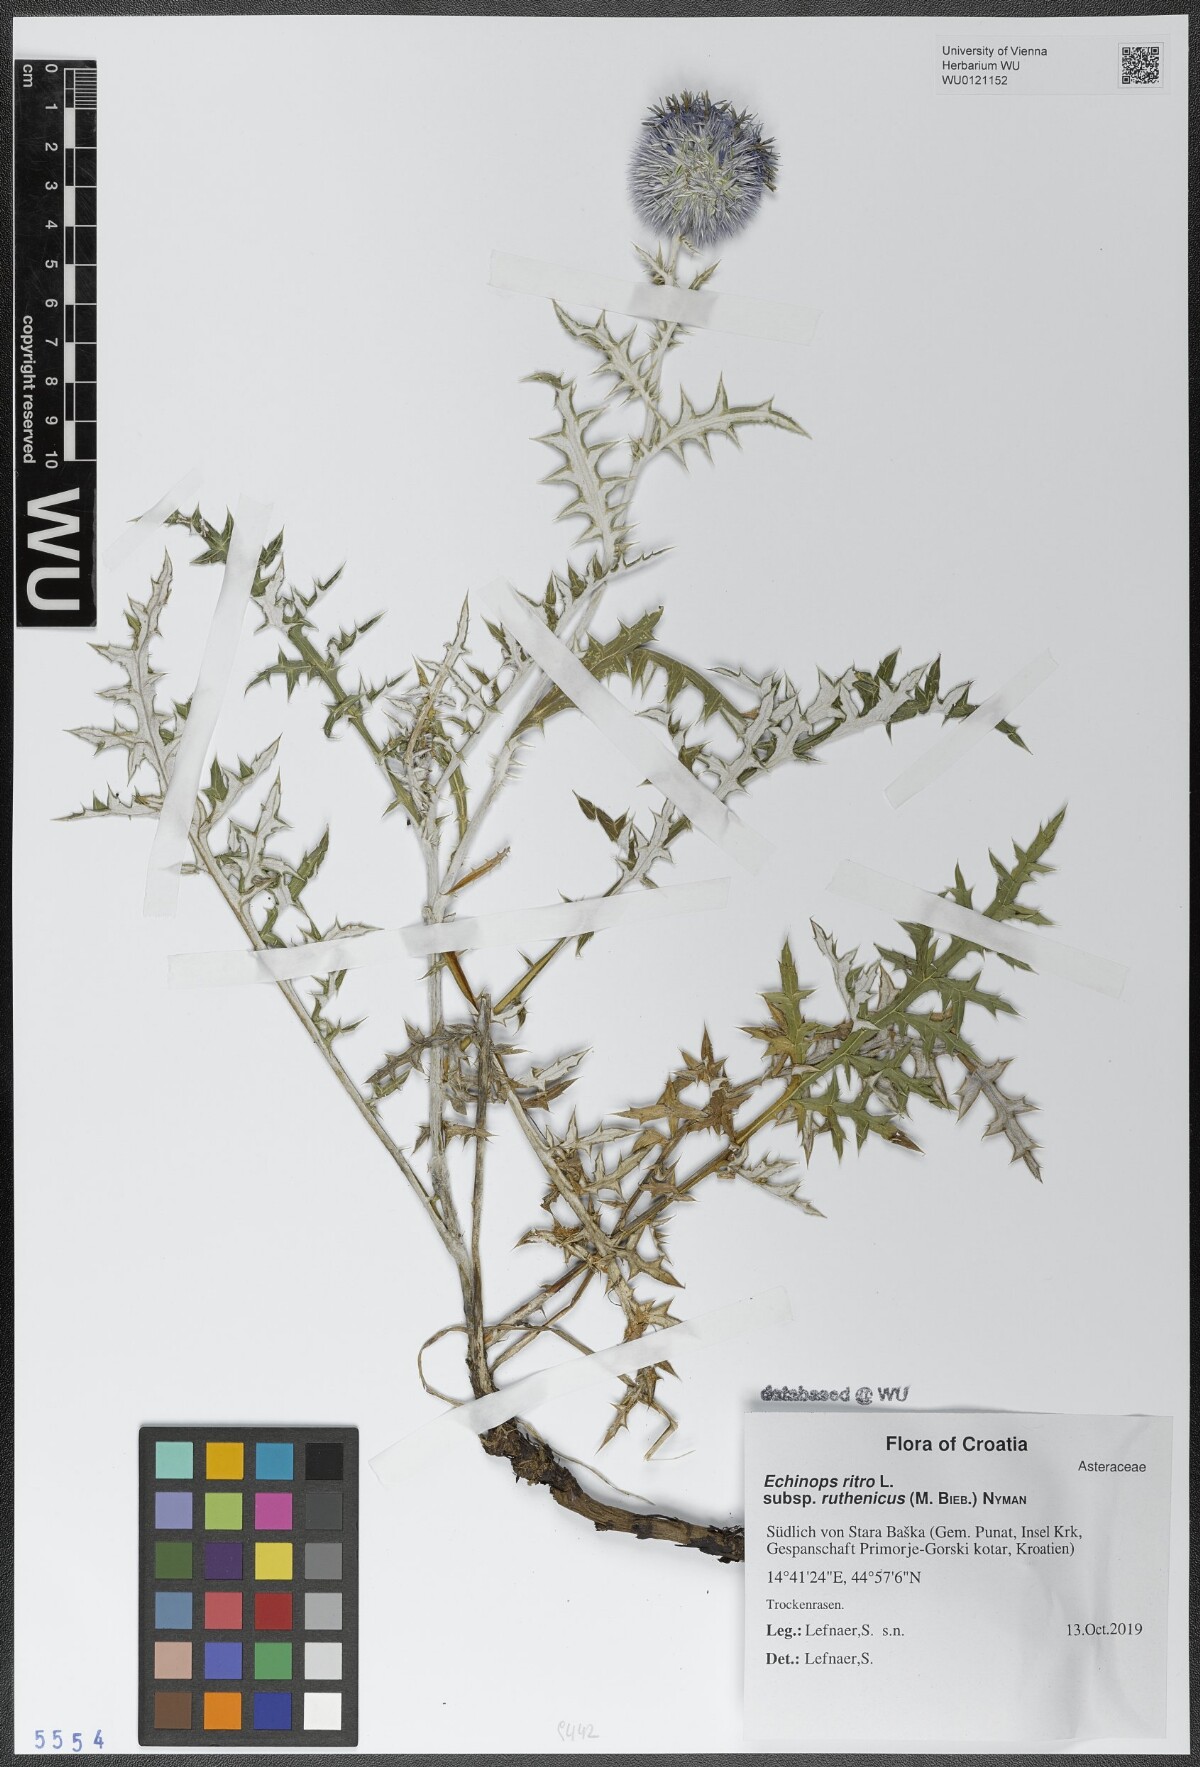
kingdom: Plantae
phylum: Tracheophyta
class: Magnoliopsida
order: Asterales
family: Asteraceae
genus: Echinops
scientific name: Echinops ritro
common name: Globe thistle
